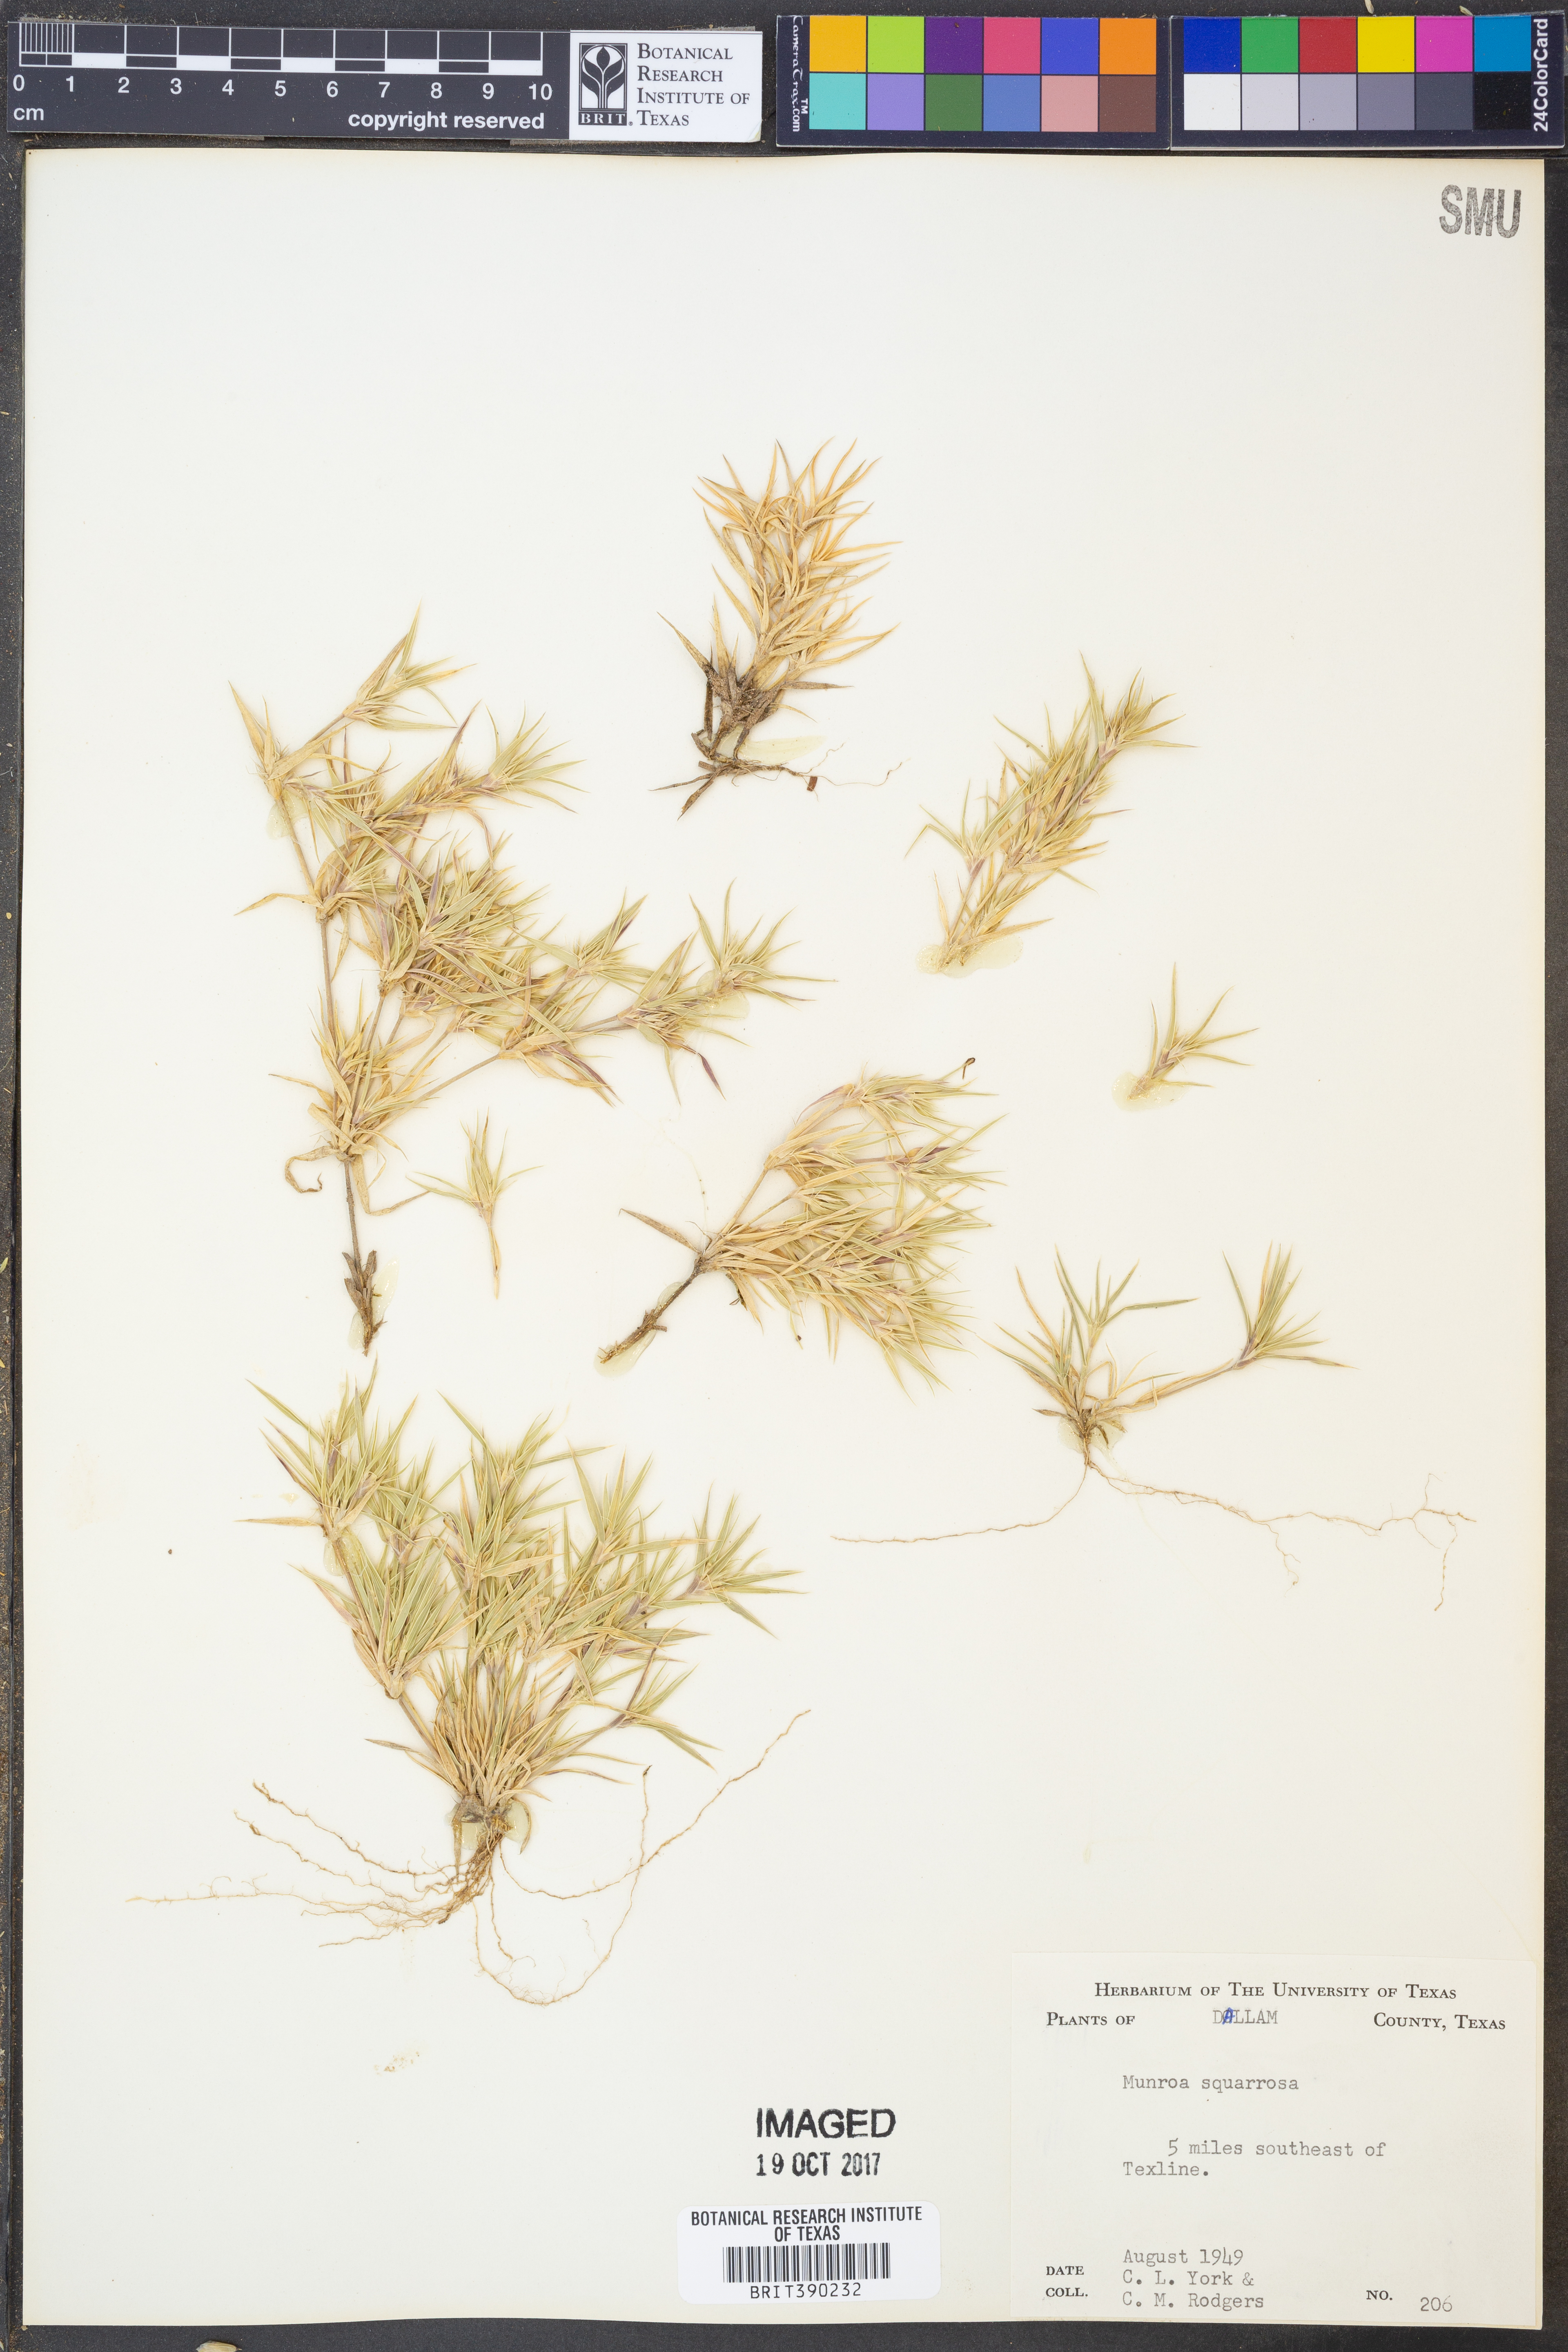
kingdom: Plantae
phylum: Tracheophyta
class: Liliopsida
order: Poales
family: Poaceae
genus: Munroa
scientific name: Munroa squarrosa
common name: False buffalo grass
